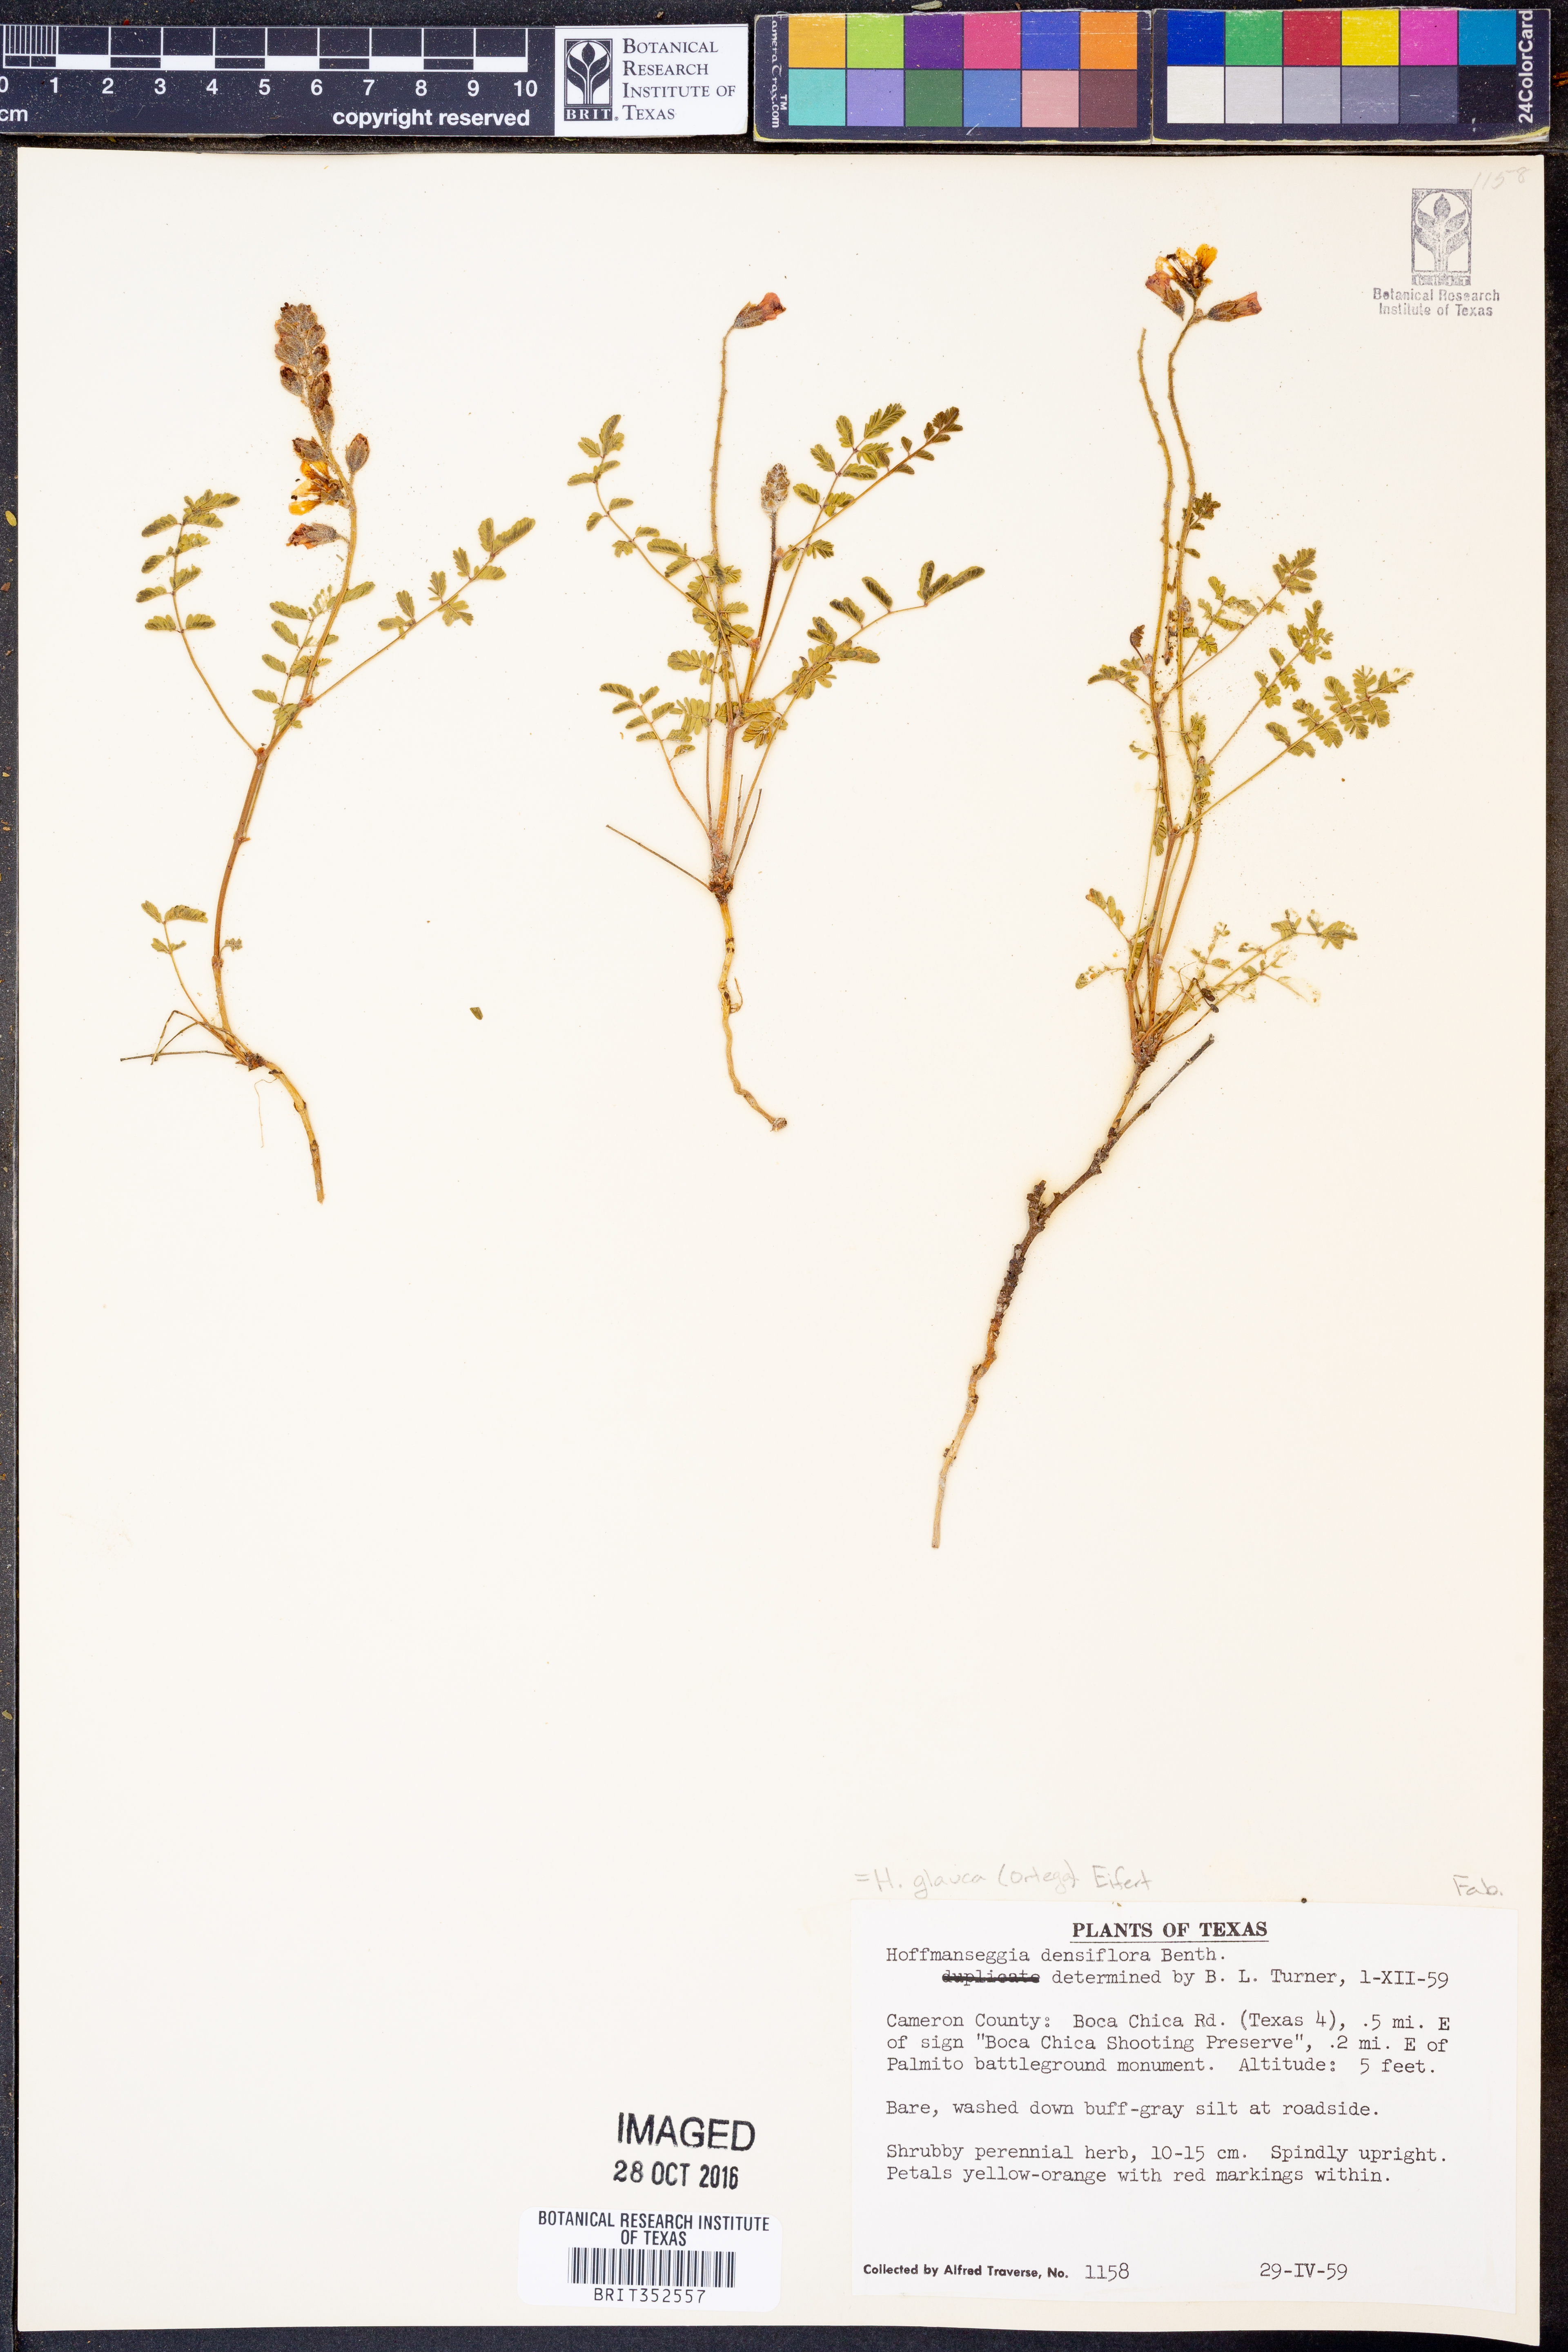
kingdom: Plantae
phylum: Tracheophyta
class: Magnoliopsida
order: Fabales
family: Fabaceae
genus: Hoffmannseggia
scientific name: Hoffmannseggia glauca
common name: Pignut
